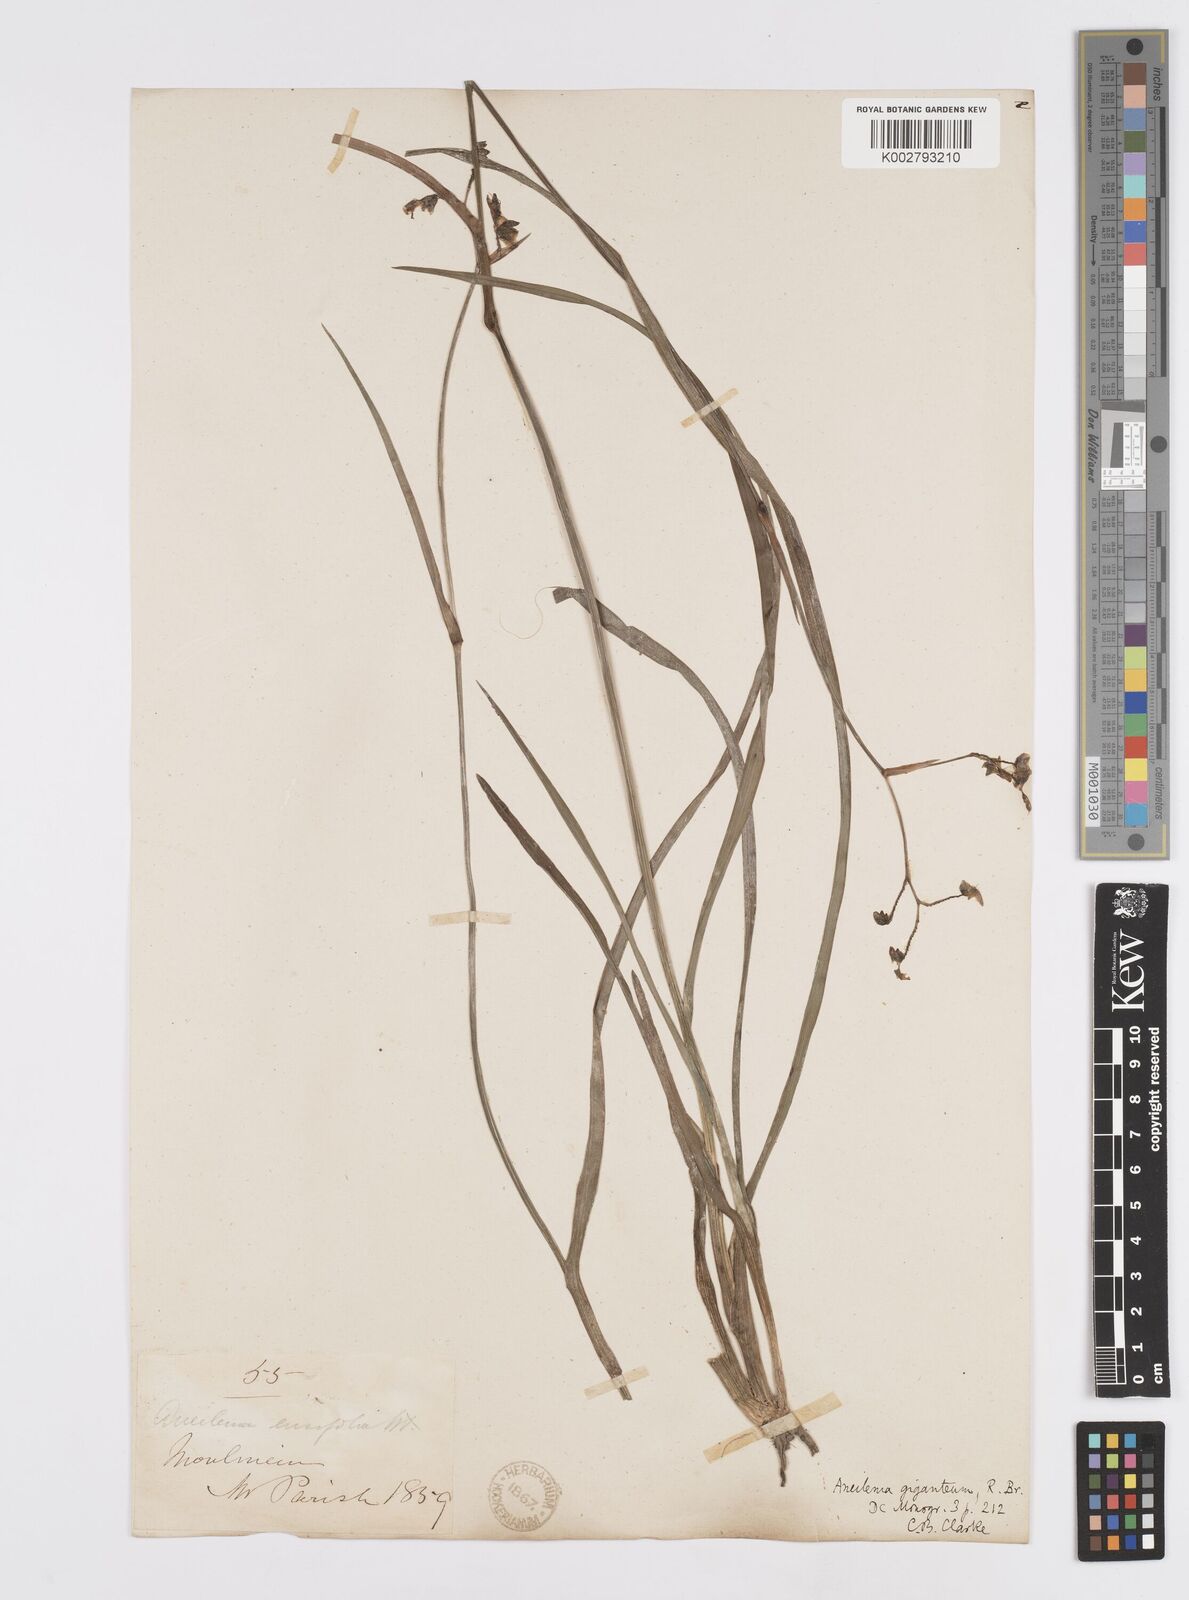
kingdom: Plantae
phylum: Tracheophyta
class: Liliopsida
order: Commelinales
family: Commelinaceae
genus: Murdannia
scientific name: Murdannia simplex
